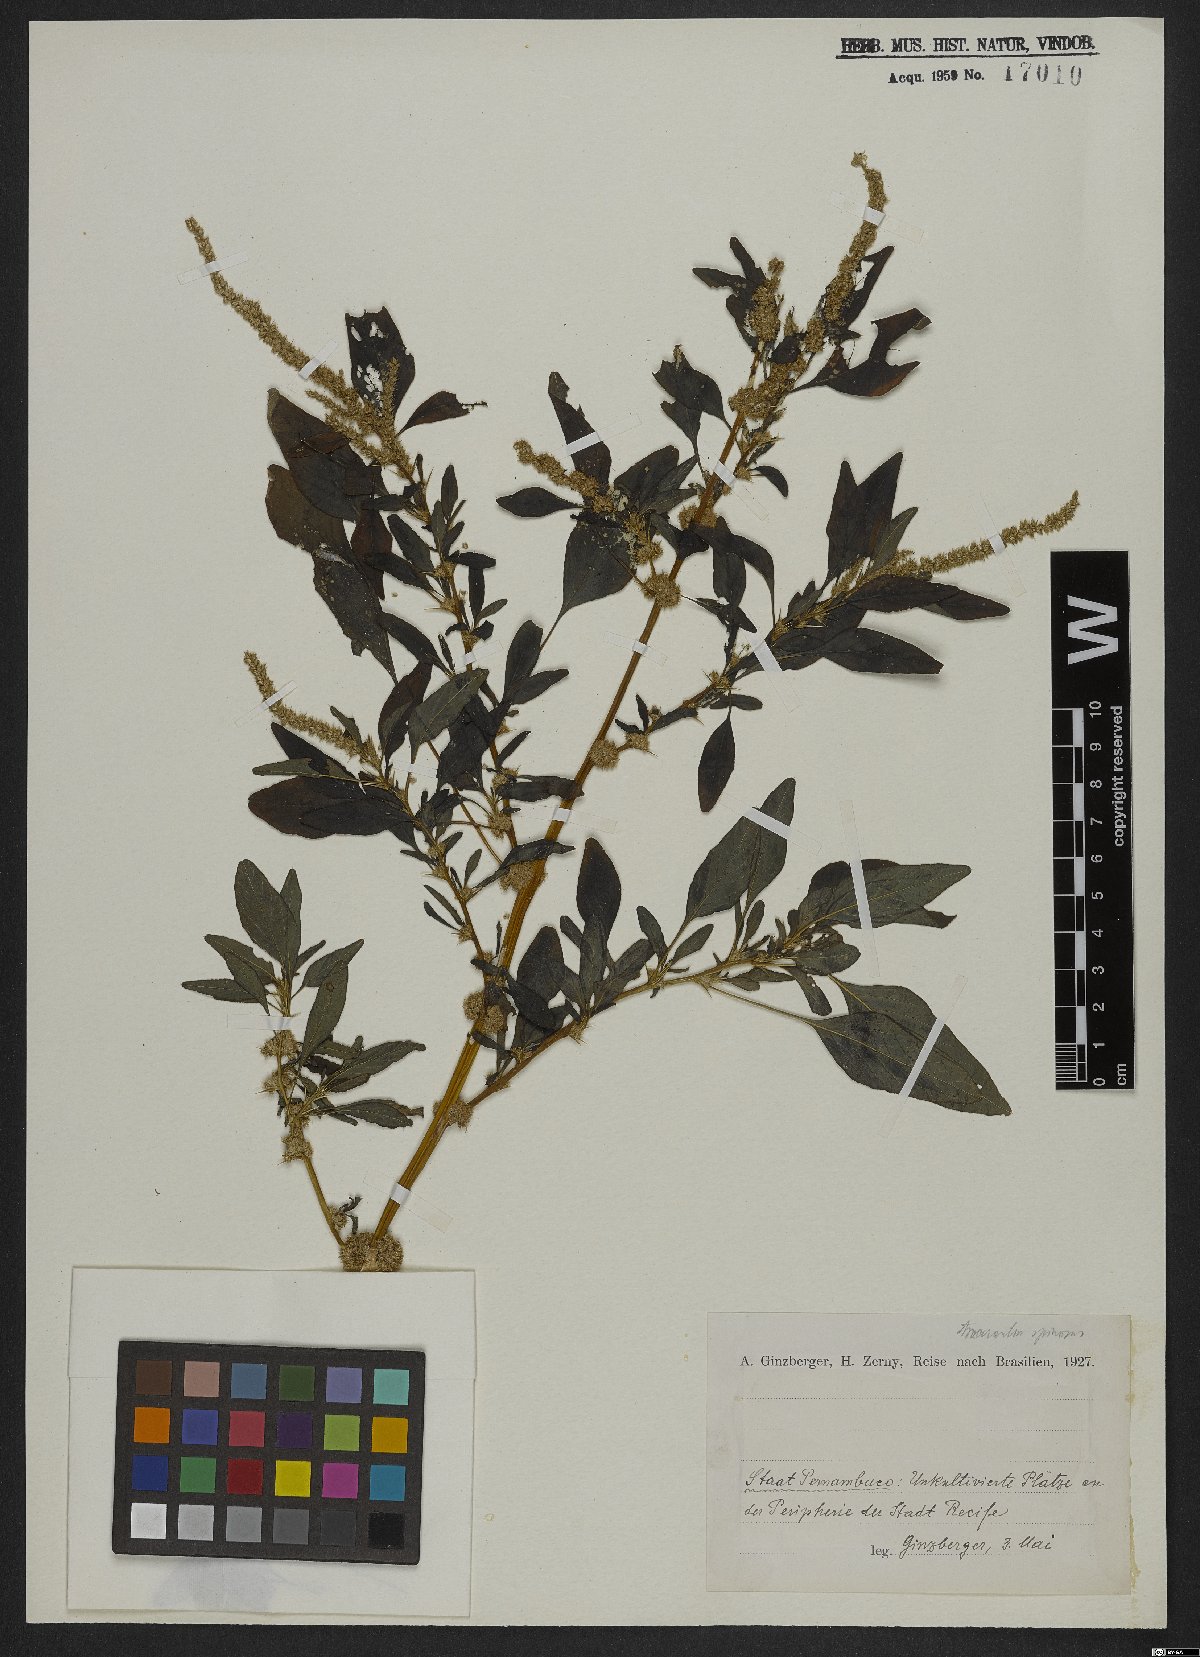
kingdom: Plantae
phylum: Tracheophyta
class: Magnoliopsida
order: Caryophyllales
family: Amaranthaceae
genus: Amaranthus
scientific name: Amaranthus spinosus
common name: Spiny amaranth
